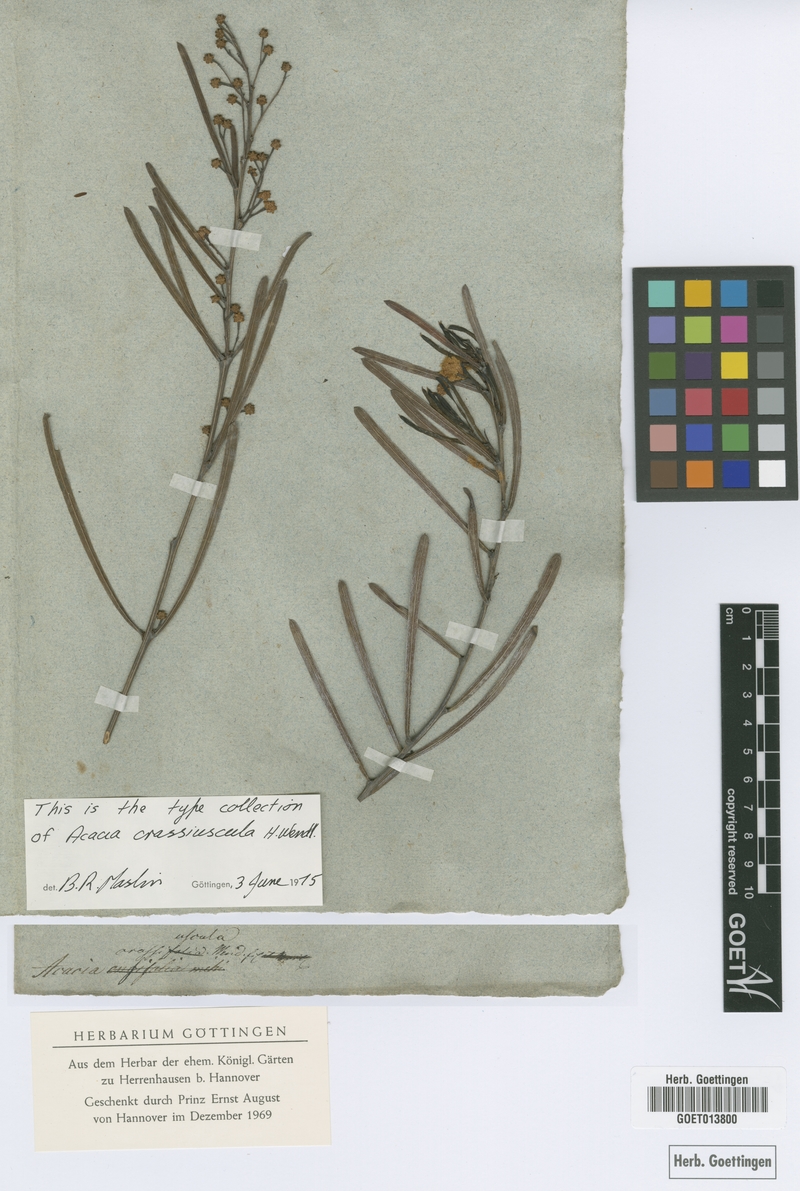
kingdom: Plantae
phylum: Tracheophyta
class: Magnoliopsida
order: Fabales
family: Fabaceae
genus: Acacia
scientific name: Acacia crassiuscula
